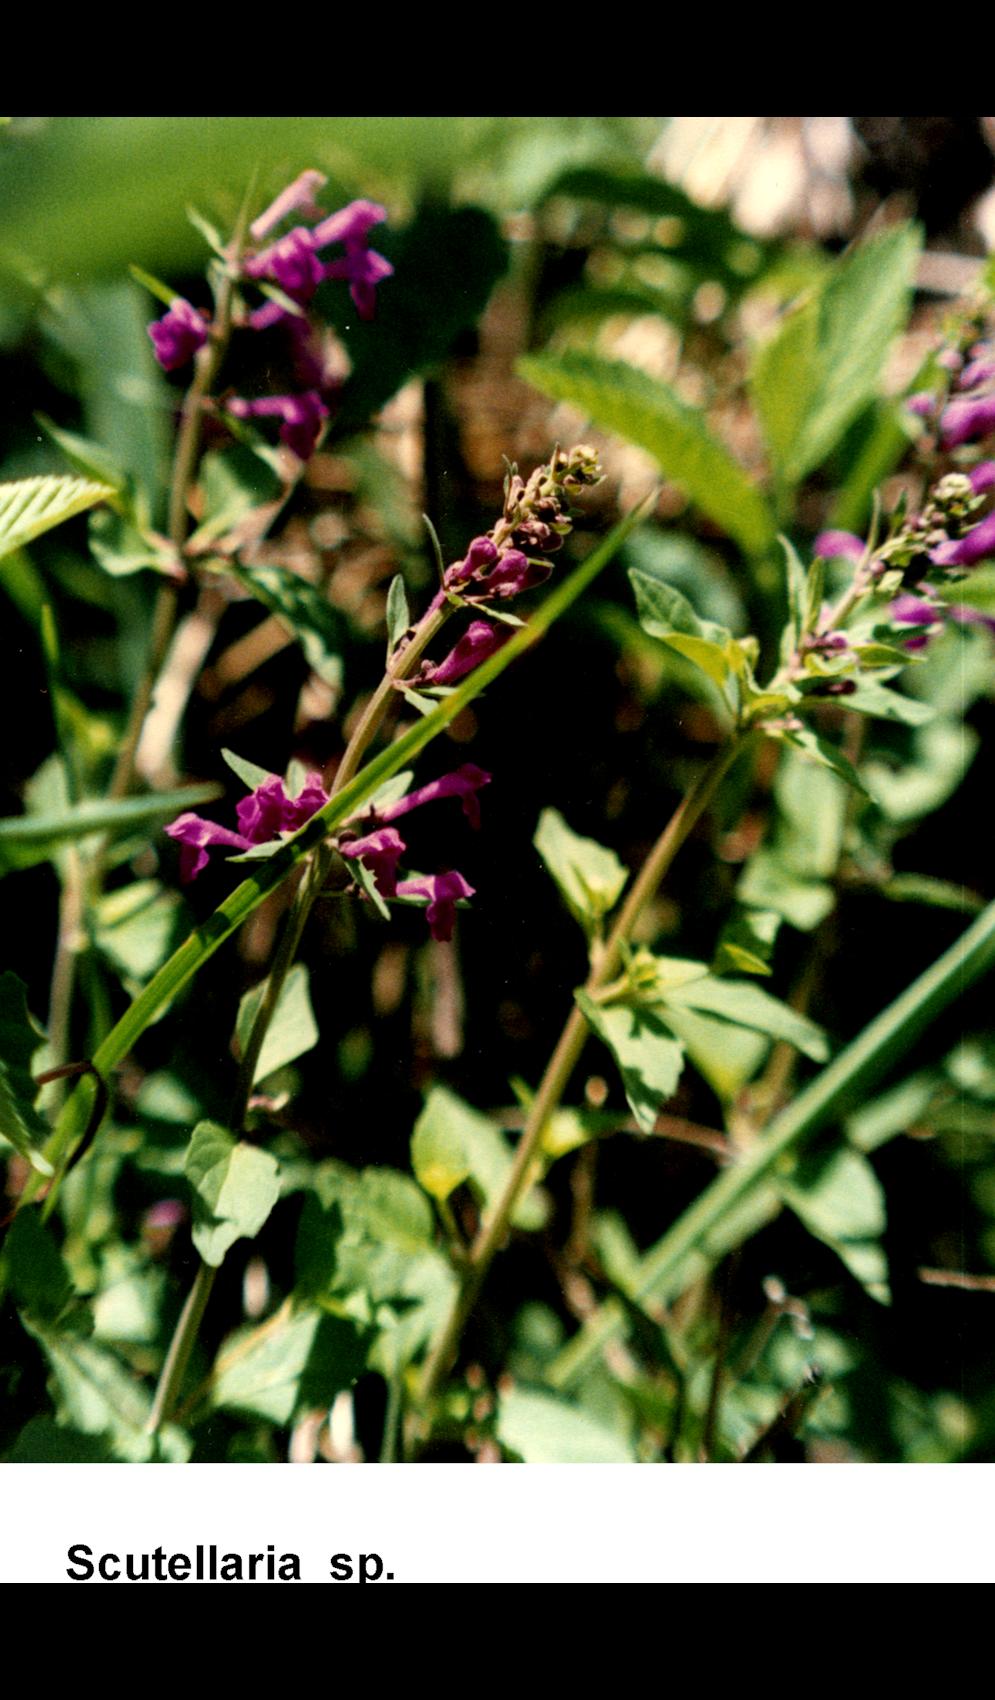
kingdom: Plantae
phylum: Tracheophyta
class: Magnoliopsida
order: Lamiales
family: Lamiaceae
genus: Scutellaria
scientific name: Scutellaria
